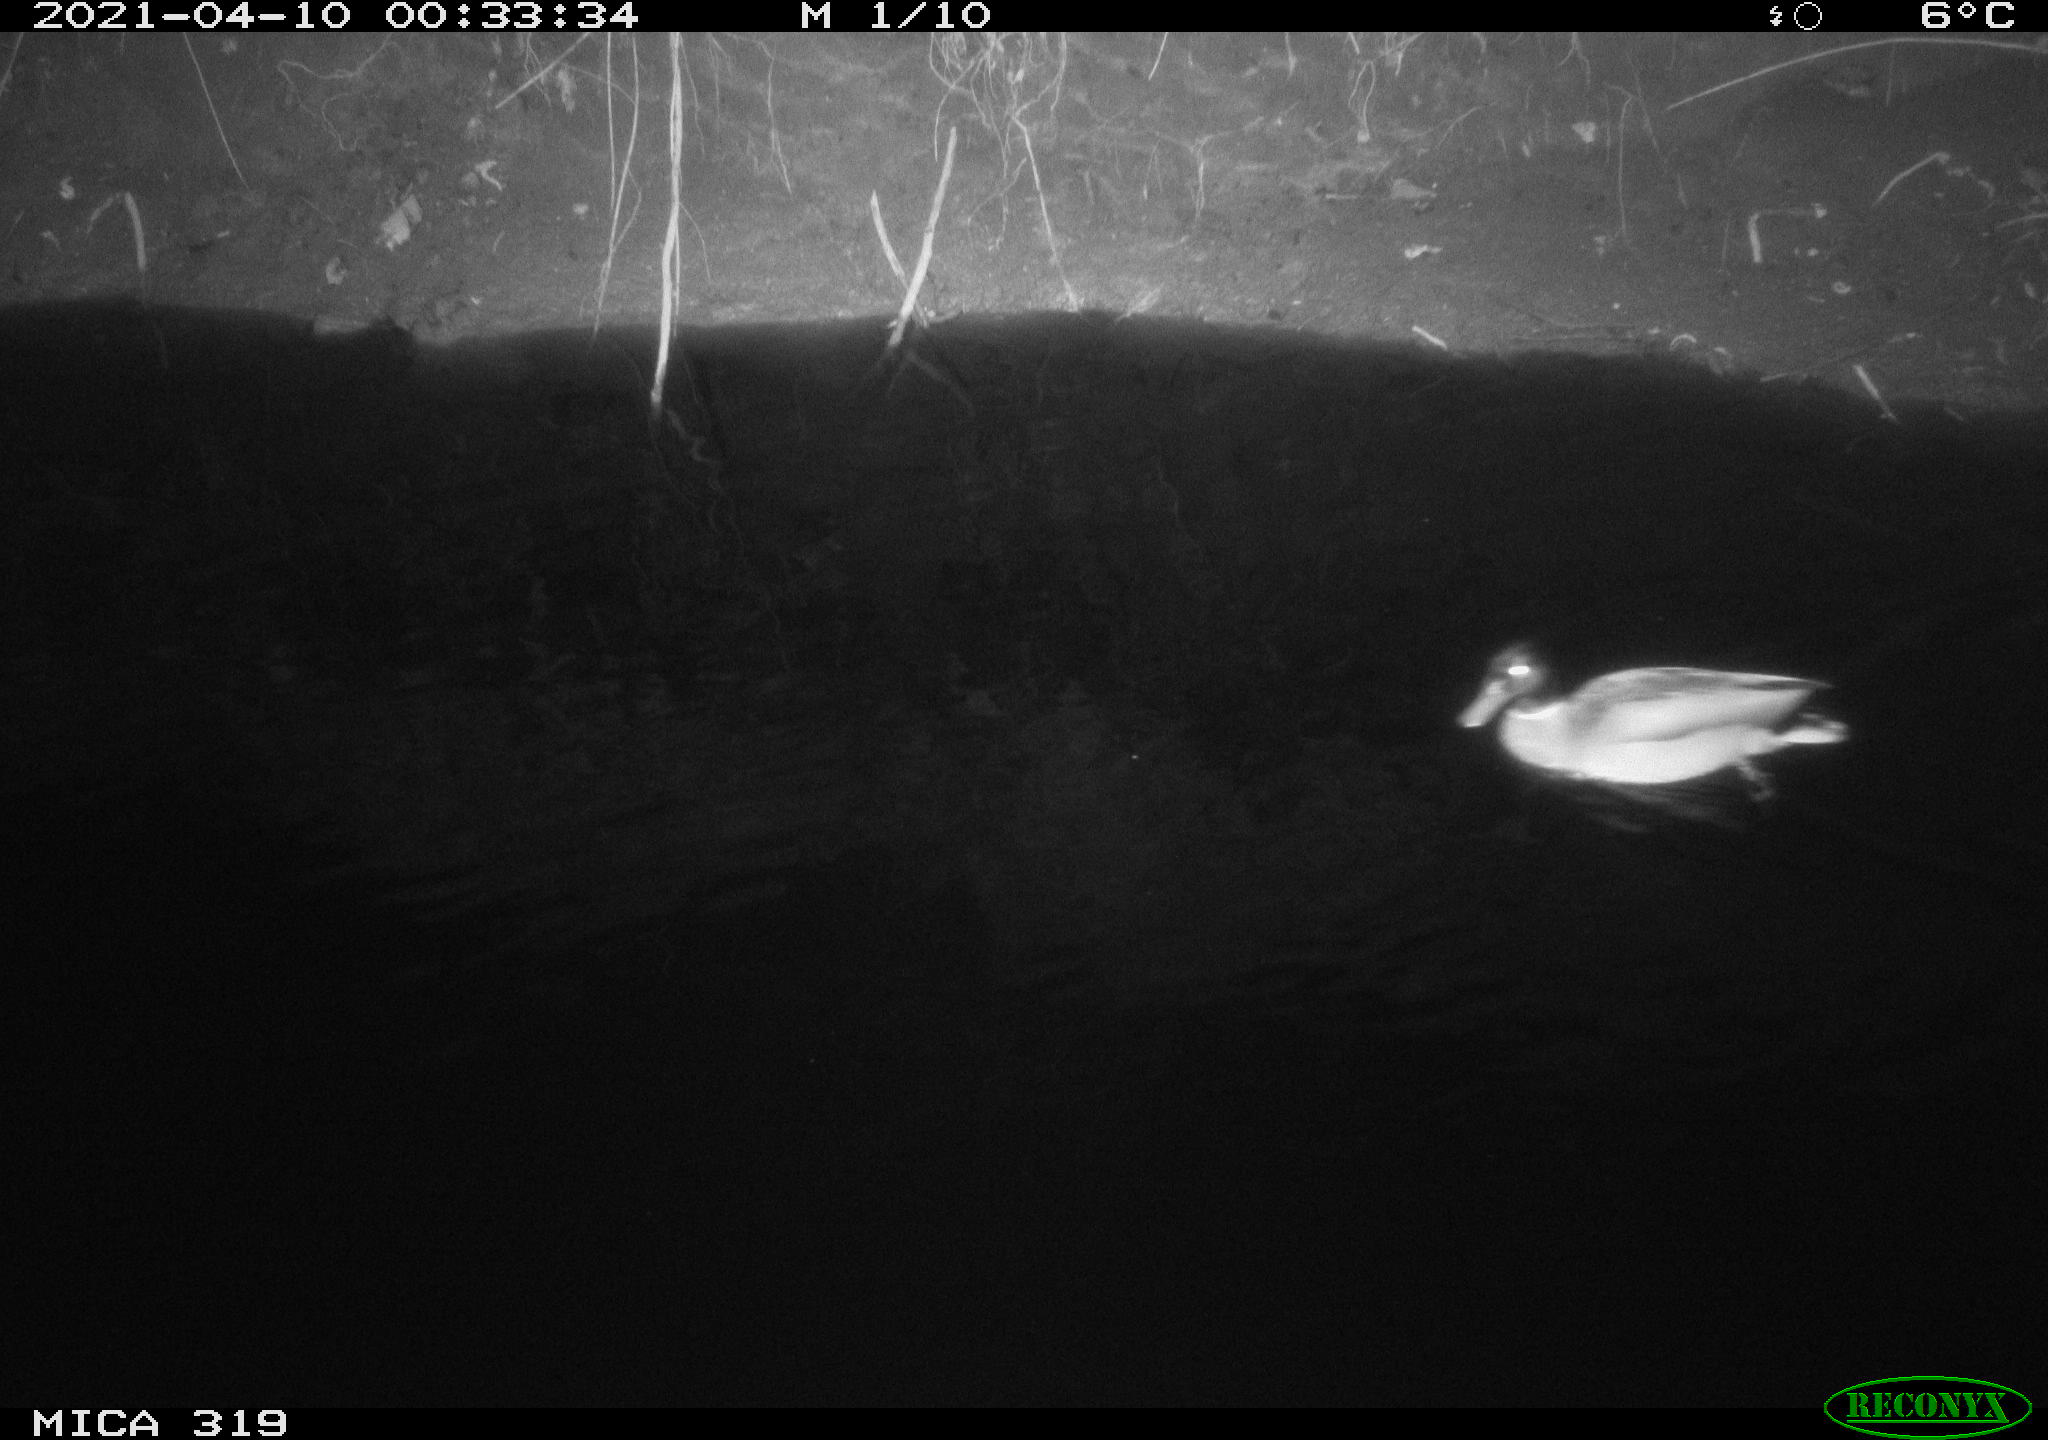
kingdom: Animalia
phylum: Chordata
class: Aves
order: Anseriformes
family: Anatidae
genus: Anas
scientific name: Anas platyrhynchos
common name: Mallard
